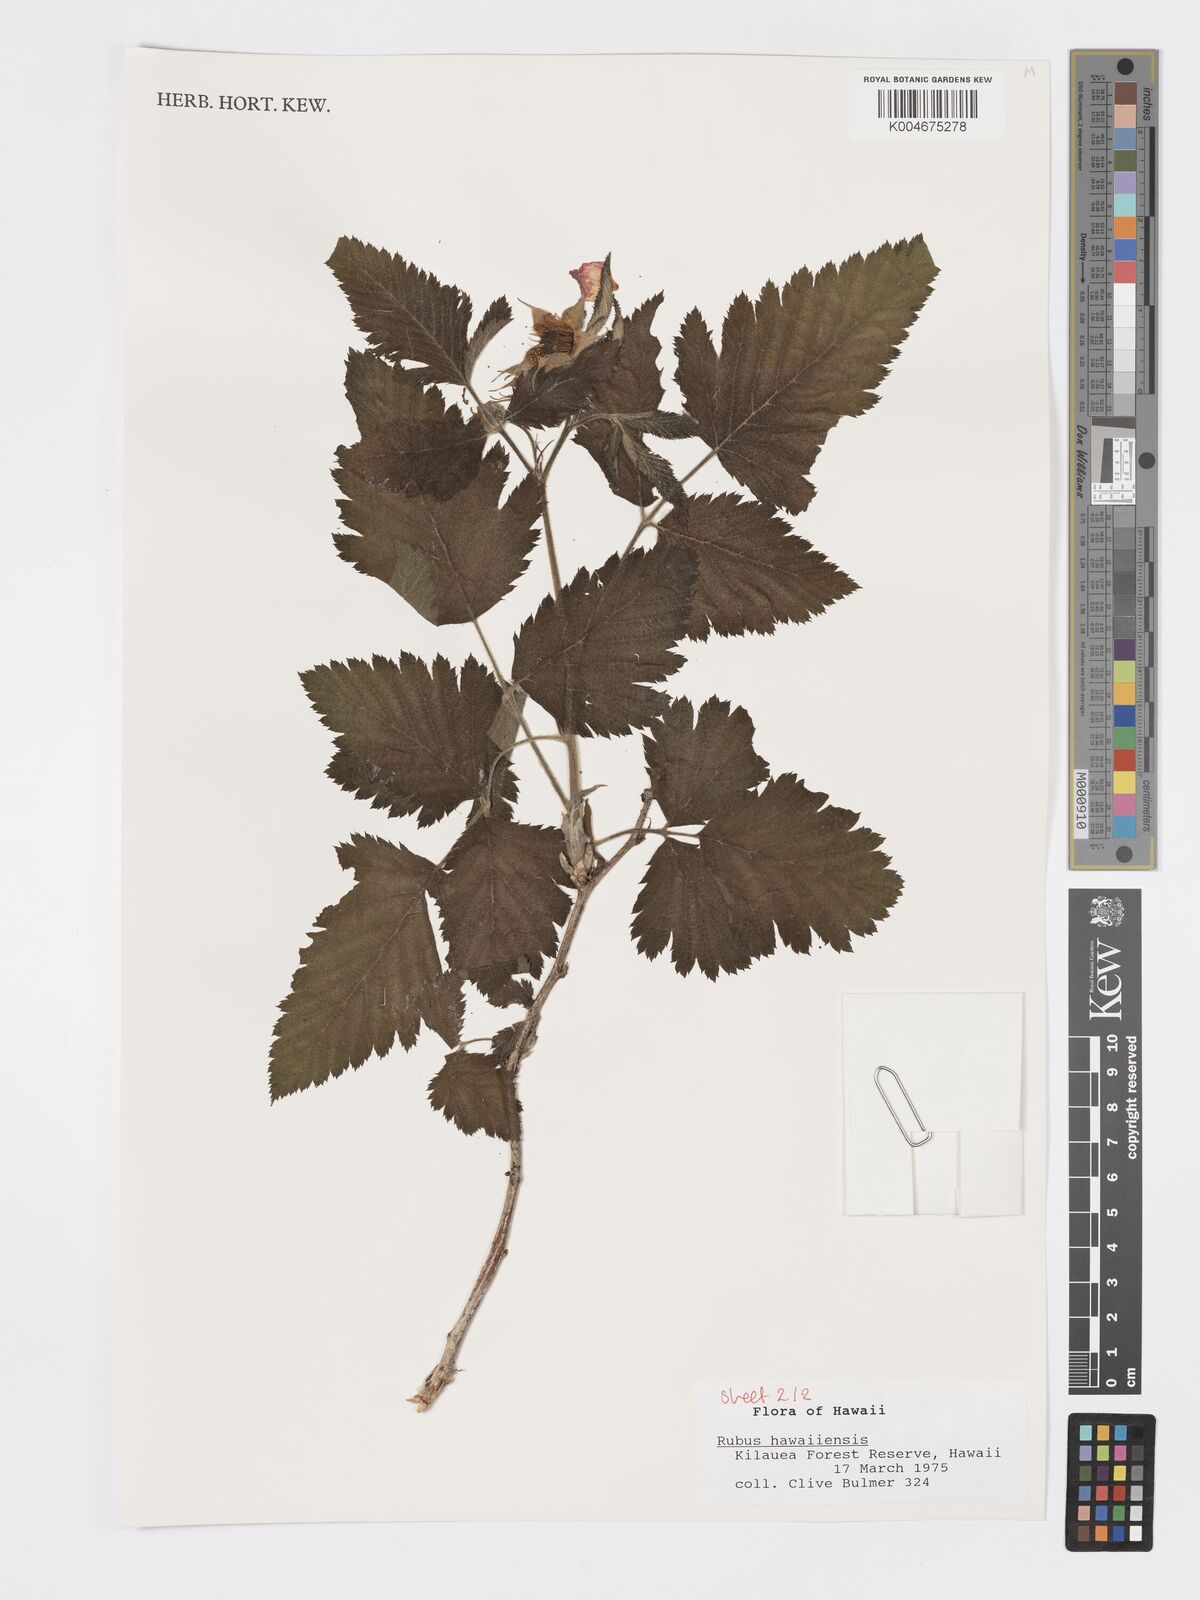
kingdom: Plantae
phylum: Tracheophyta
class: Magnoliopsida
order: Rosales
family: Rosaceae
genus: Rubus
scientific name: Rubus hawaiensis
